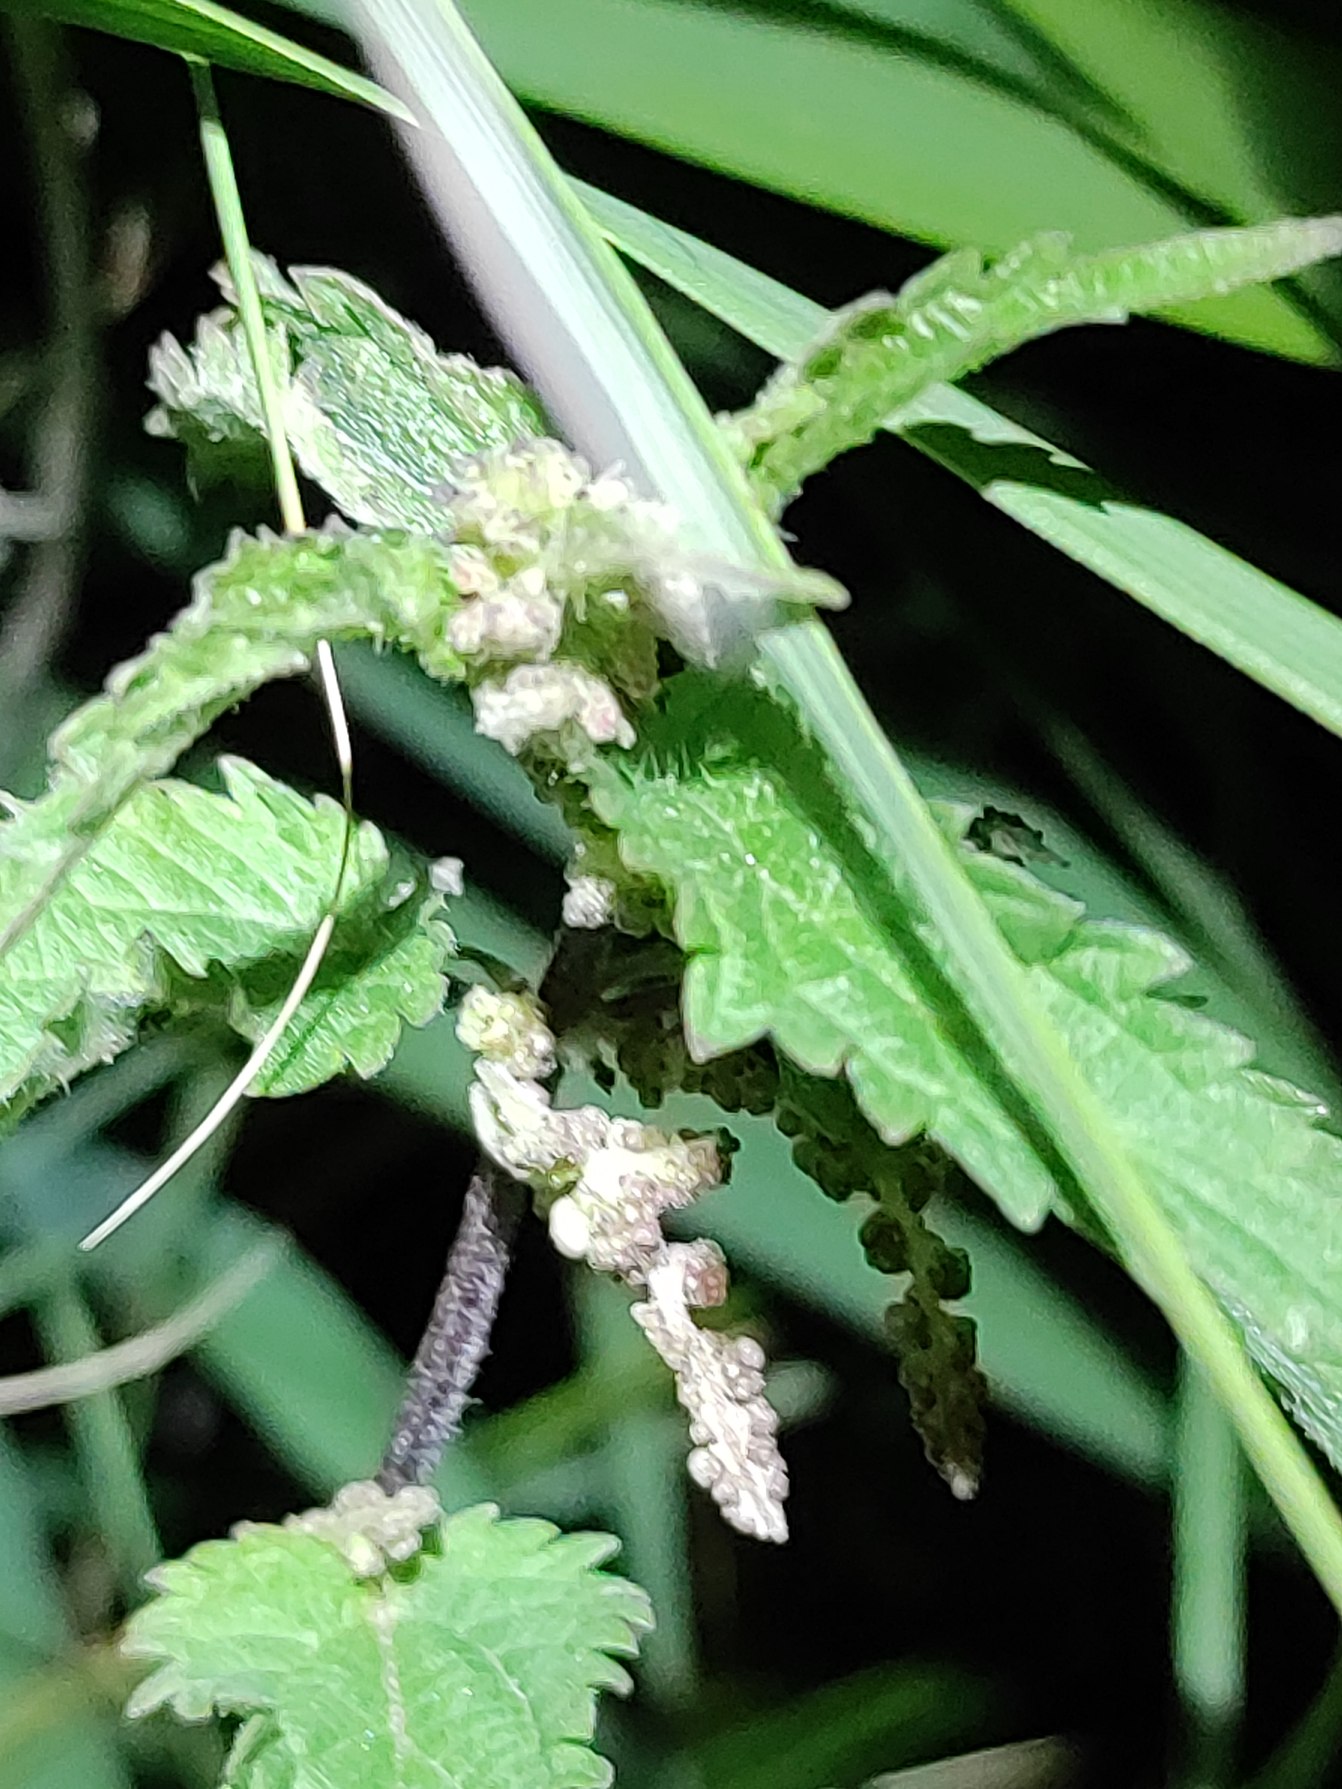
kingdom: Plantae
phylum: Tracheophyta
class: Magnoliopsida
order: Rosales
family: Urticaceae
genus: Urtica
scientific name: Urtica dioica
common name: Stor nælde
